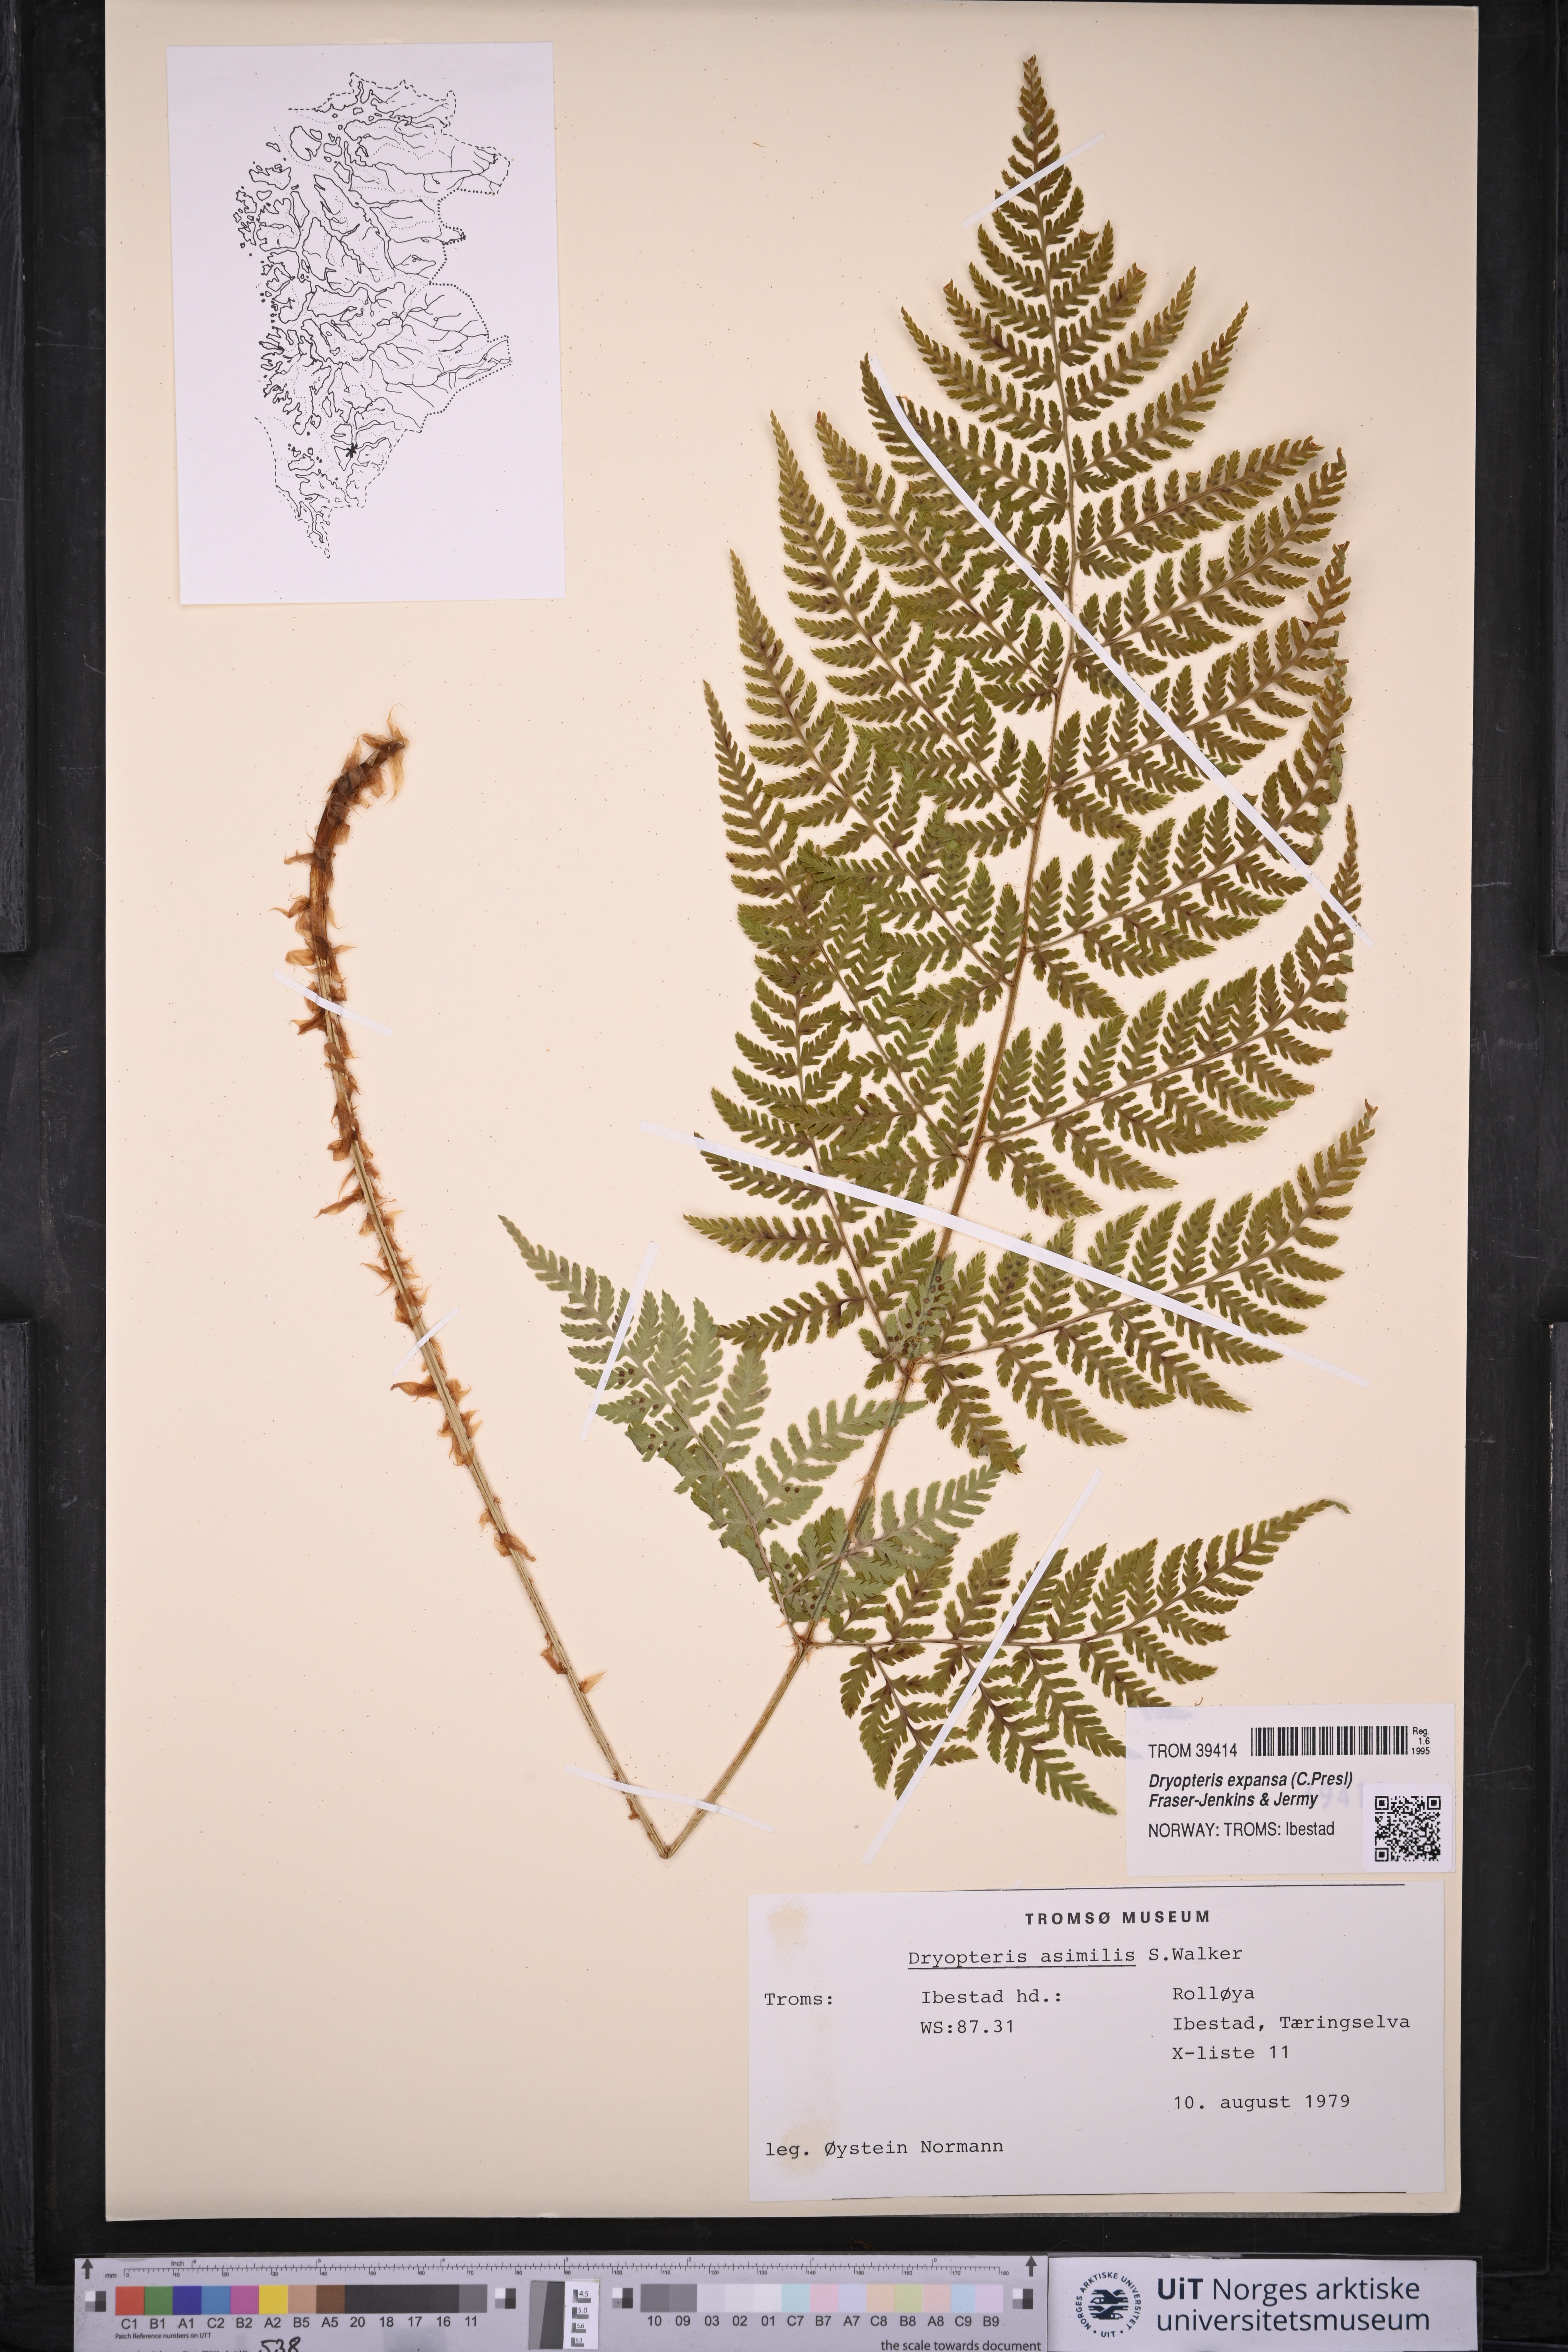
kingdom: Plantae
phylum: Tracheophyta
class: Polypodiopsida
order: Polypodiales
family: Dryopteridaceae
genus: Dryopteris
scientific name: Dryopteris expansa
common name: Northern buckler fern
